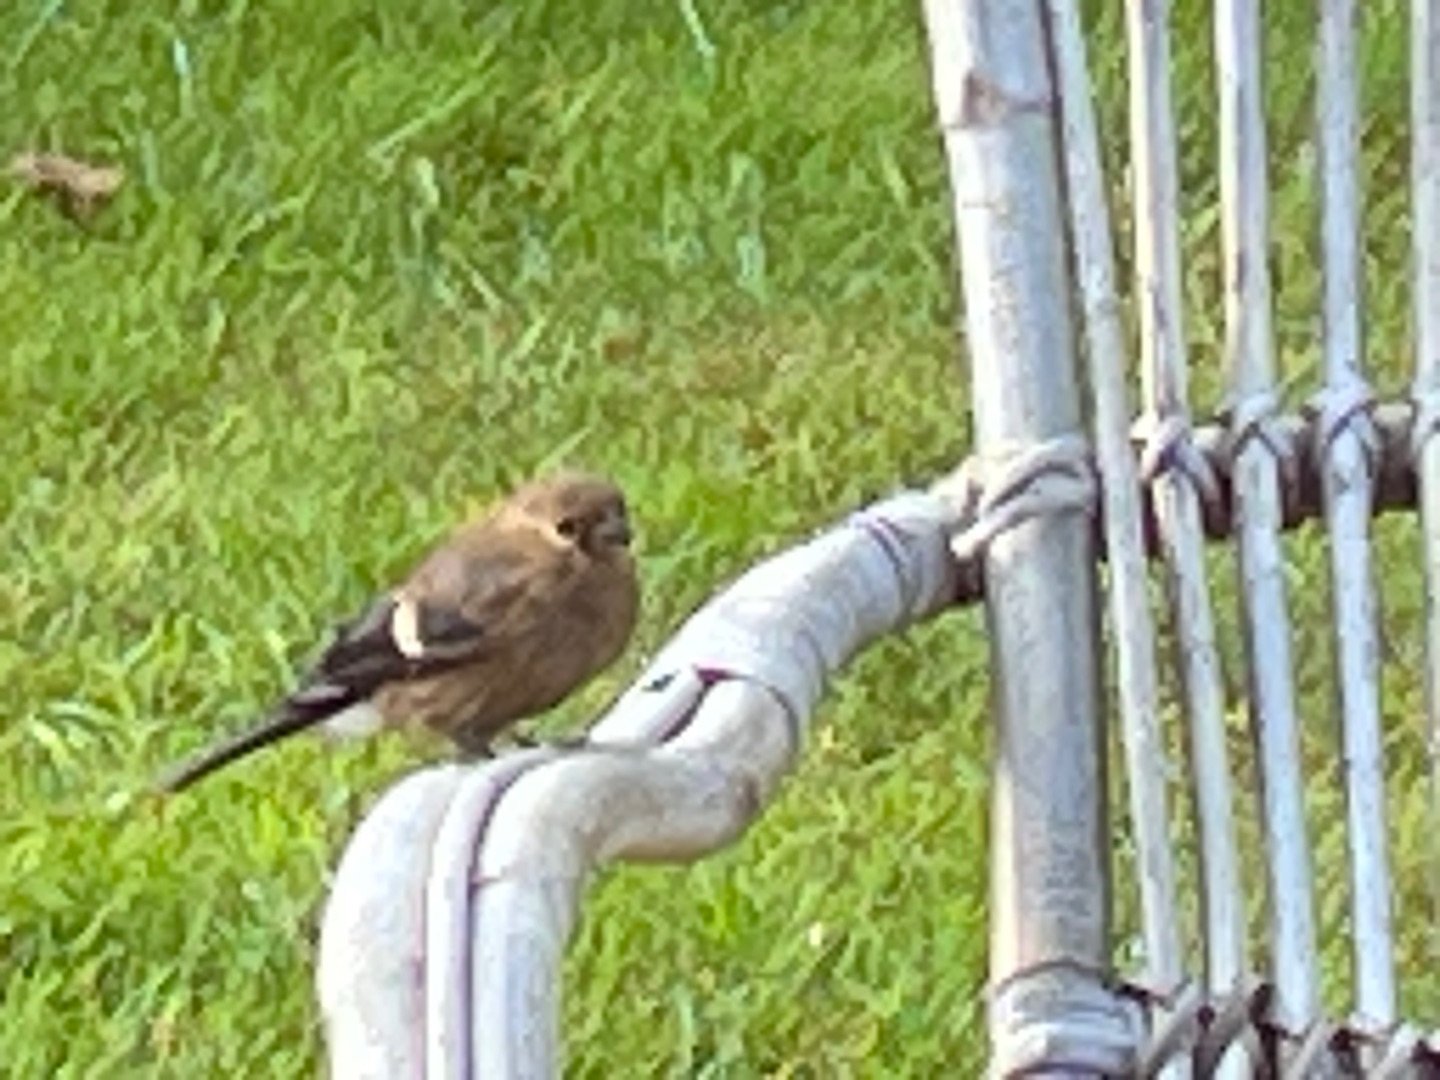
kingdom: Animalia
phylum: Chordata
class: Aves
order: Passeriformes
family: Fringillidae
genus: Pyrrhula
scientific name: Pyrrhula pyrrhula
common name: Dompap
